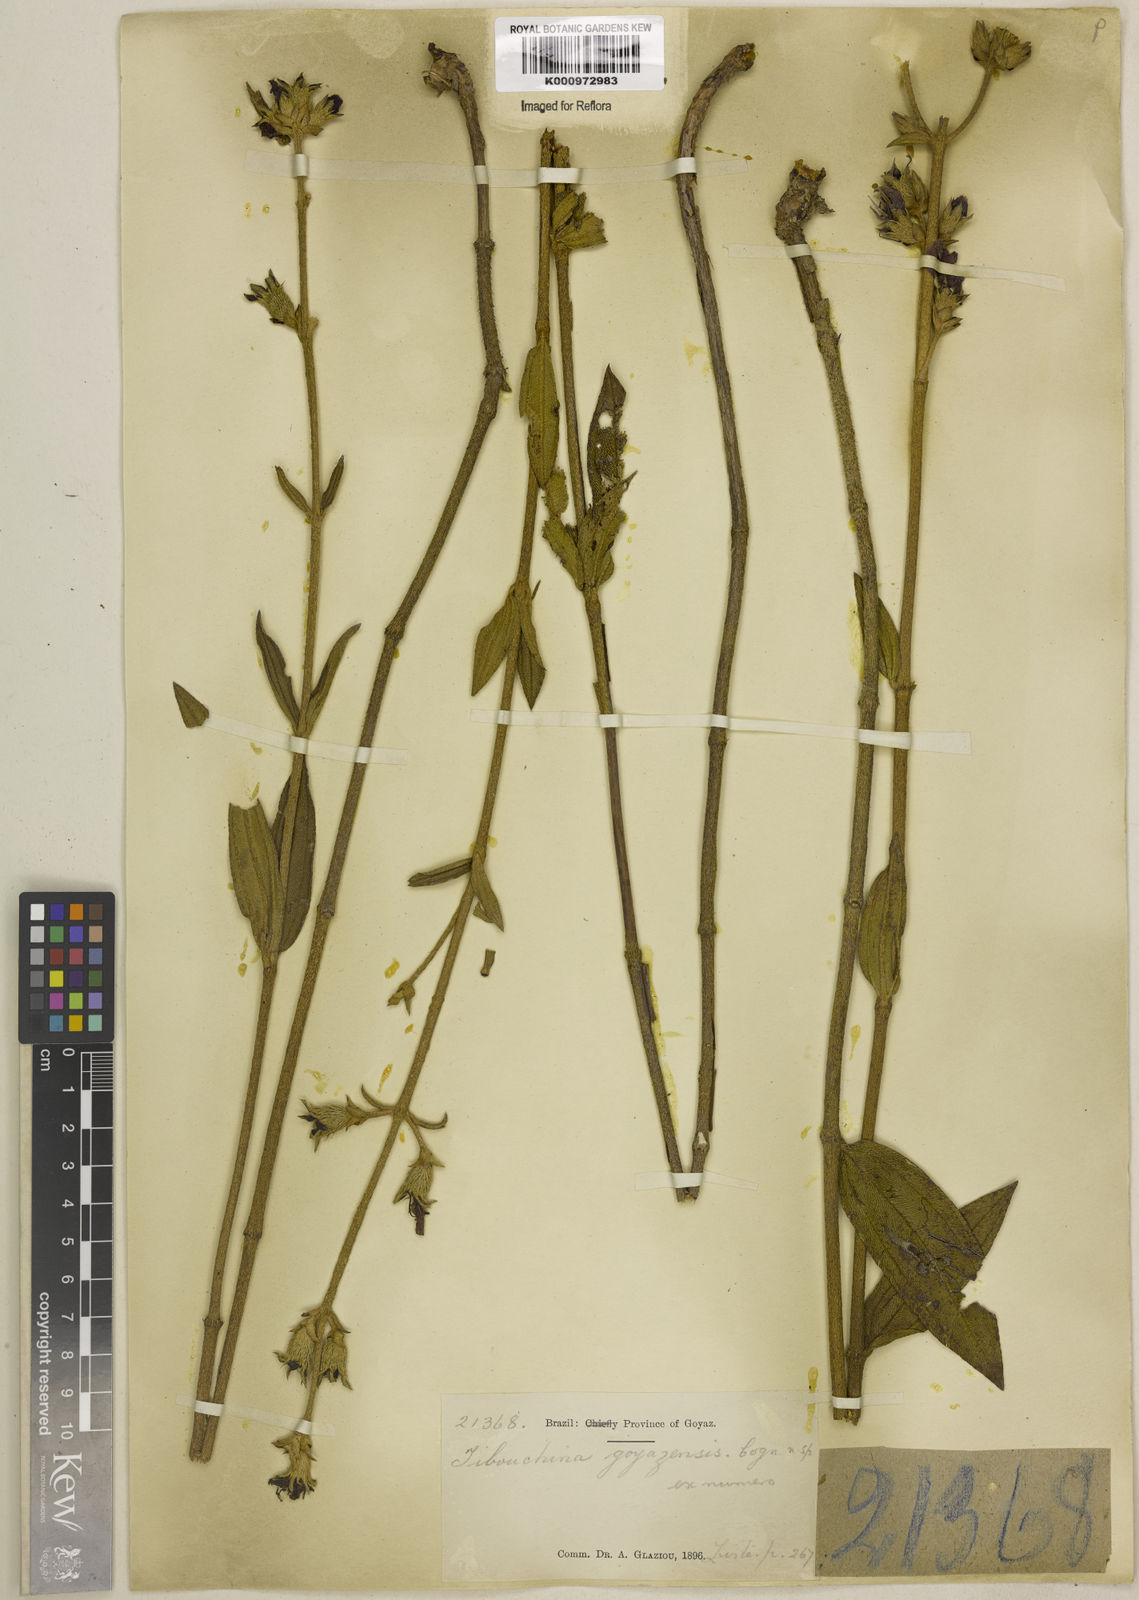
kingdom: Plantae
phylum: Tracheophyta
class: Magnoliopsida
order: Myrtales
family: Melastomataceae
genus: Tibouchina
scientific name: Tibouchina
